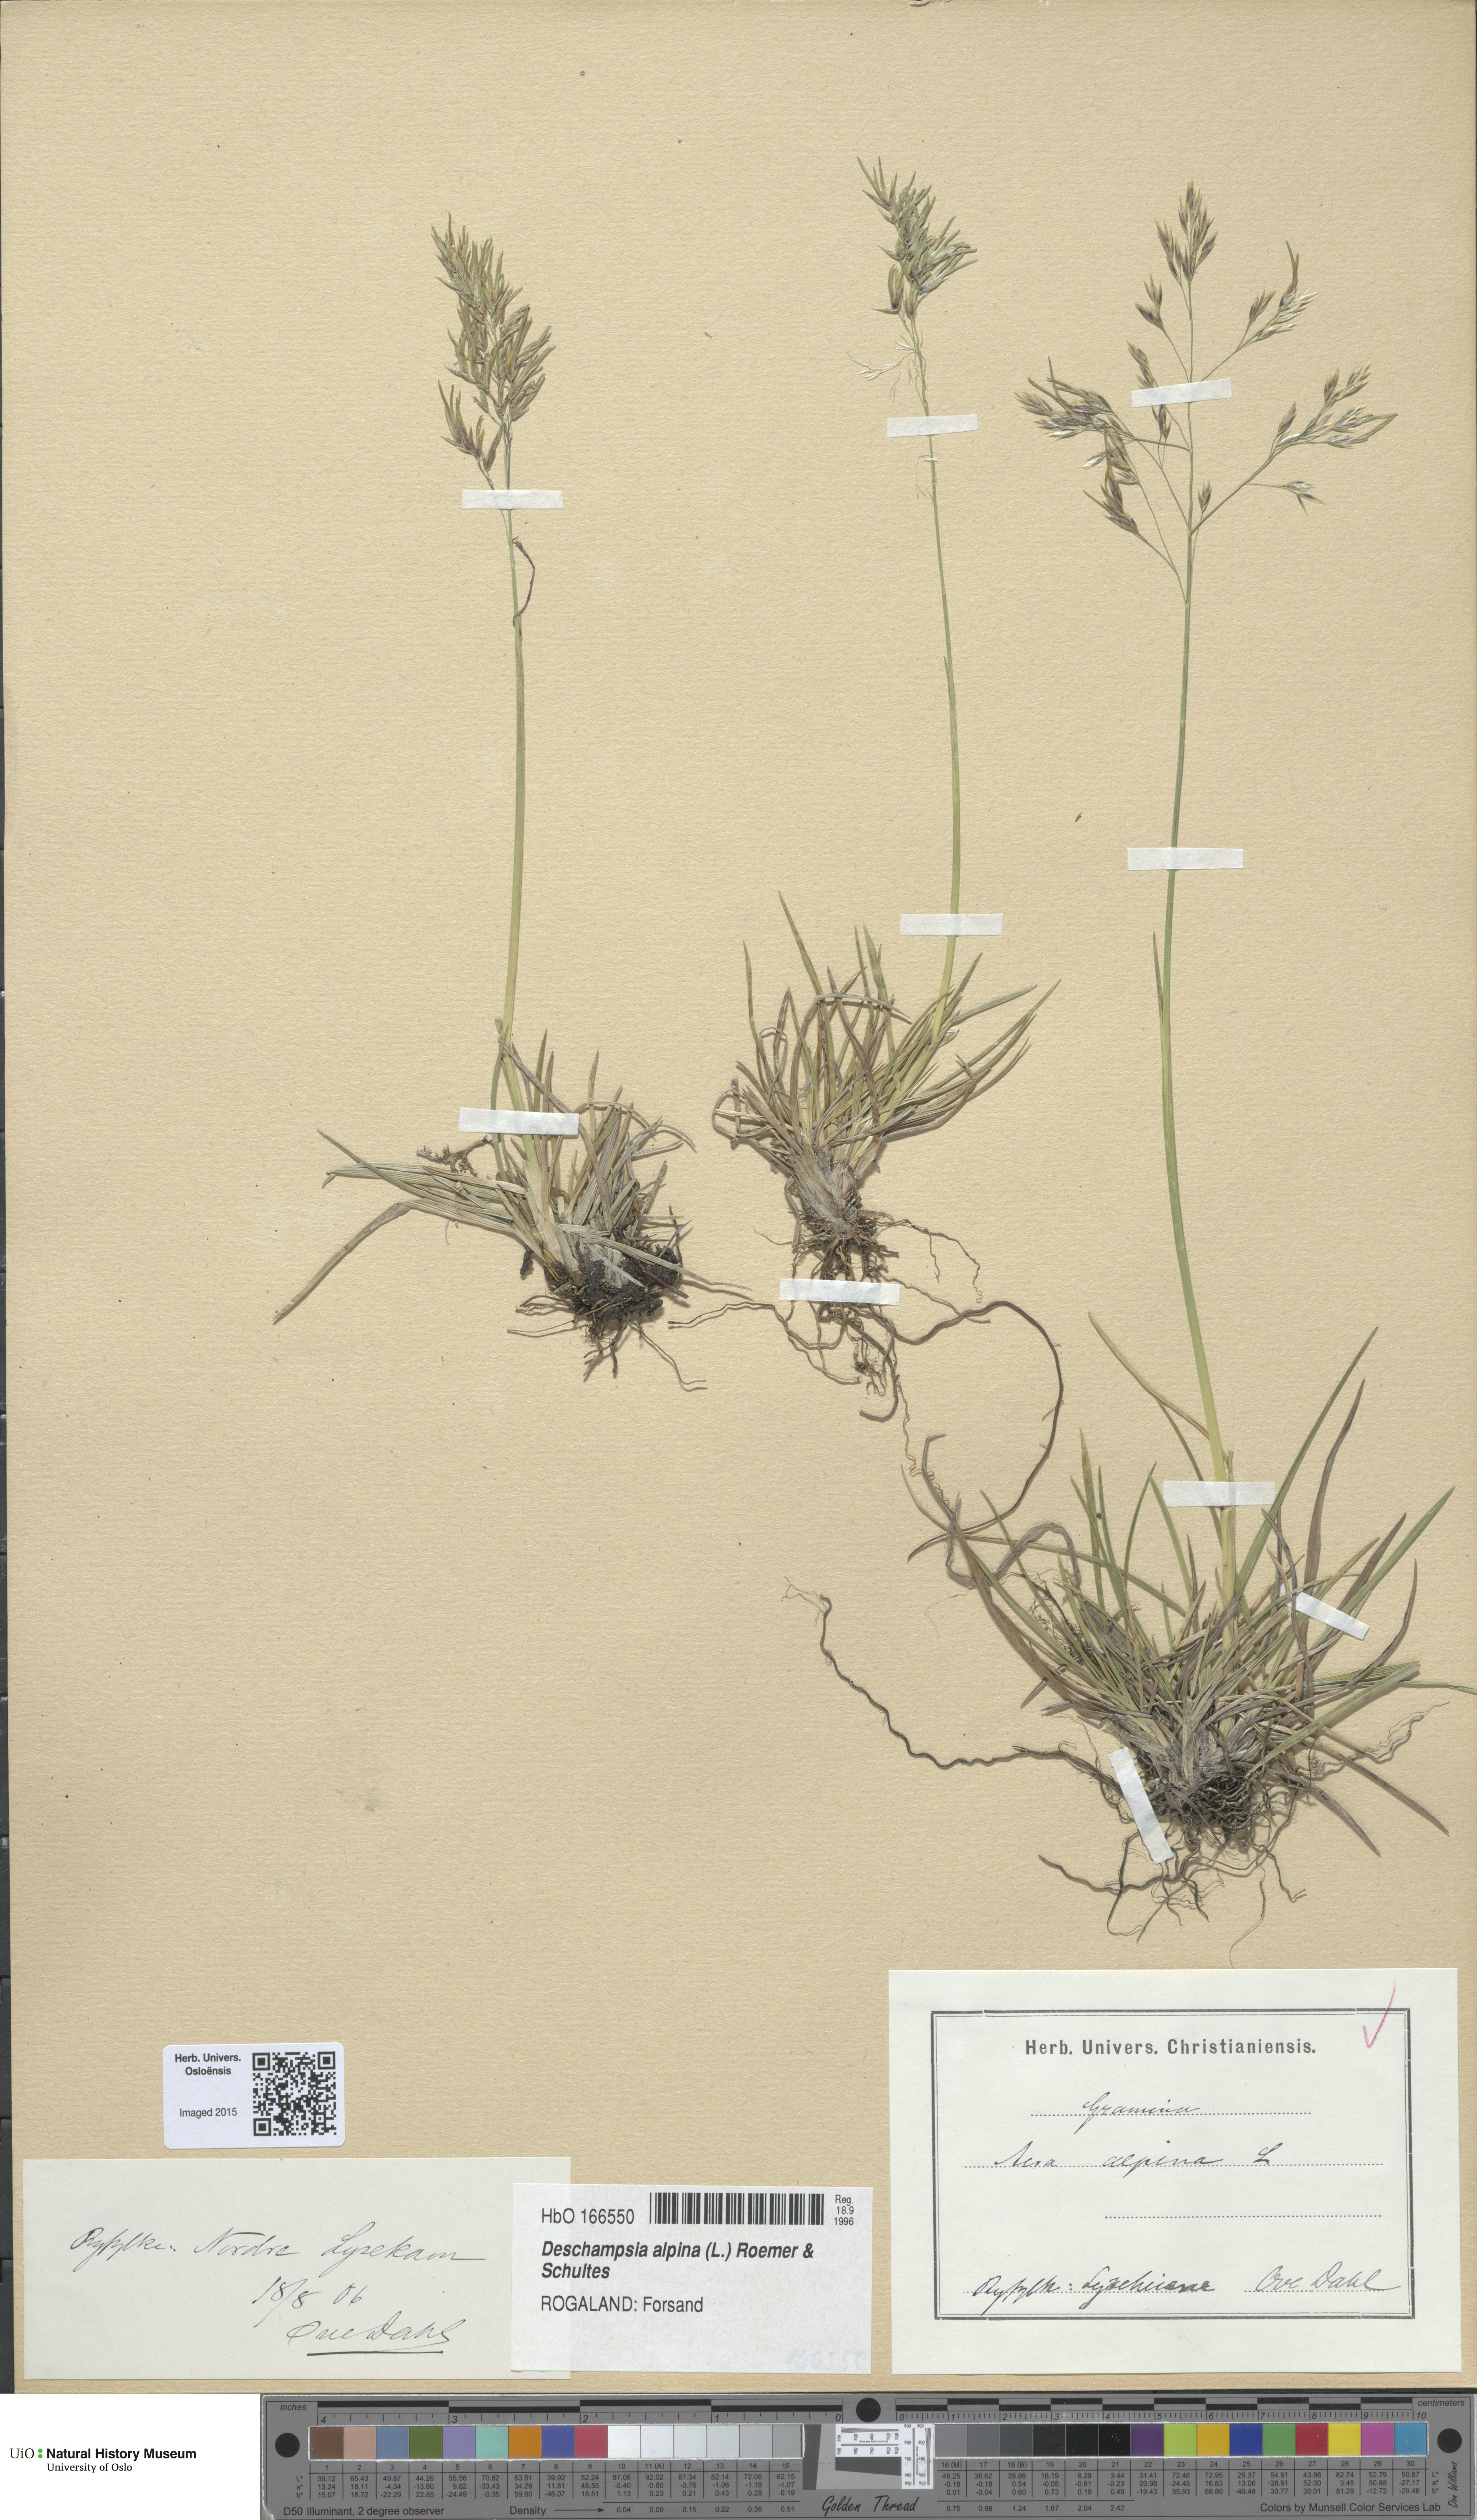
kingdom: Plantae
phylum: Tracheophyta
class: Liliopsida
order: Poales
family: Poaceae
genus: Deschampsia
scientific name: Deschampsia cespitosa
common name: Tufted hair-grass
